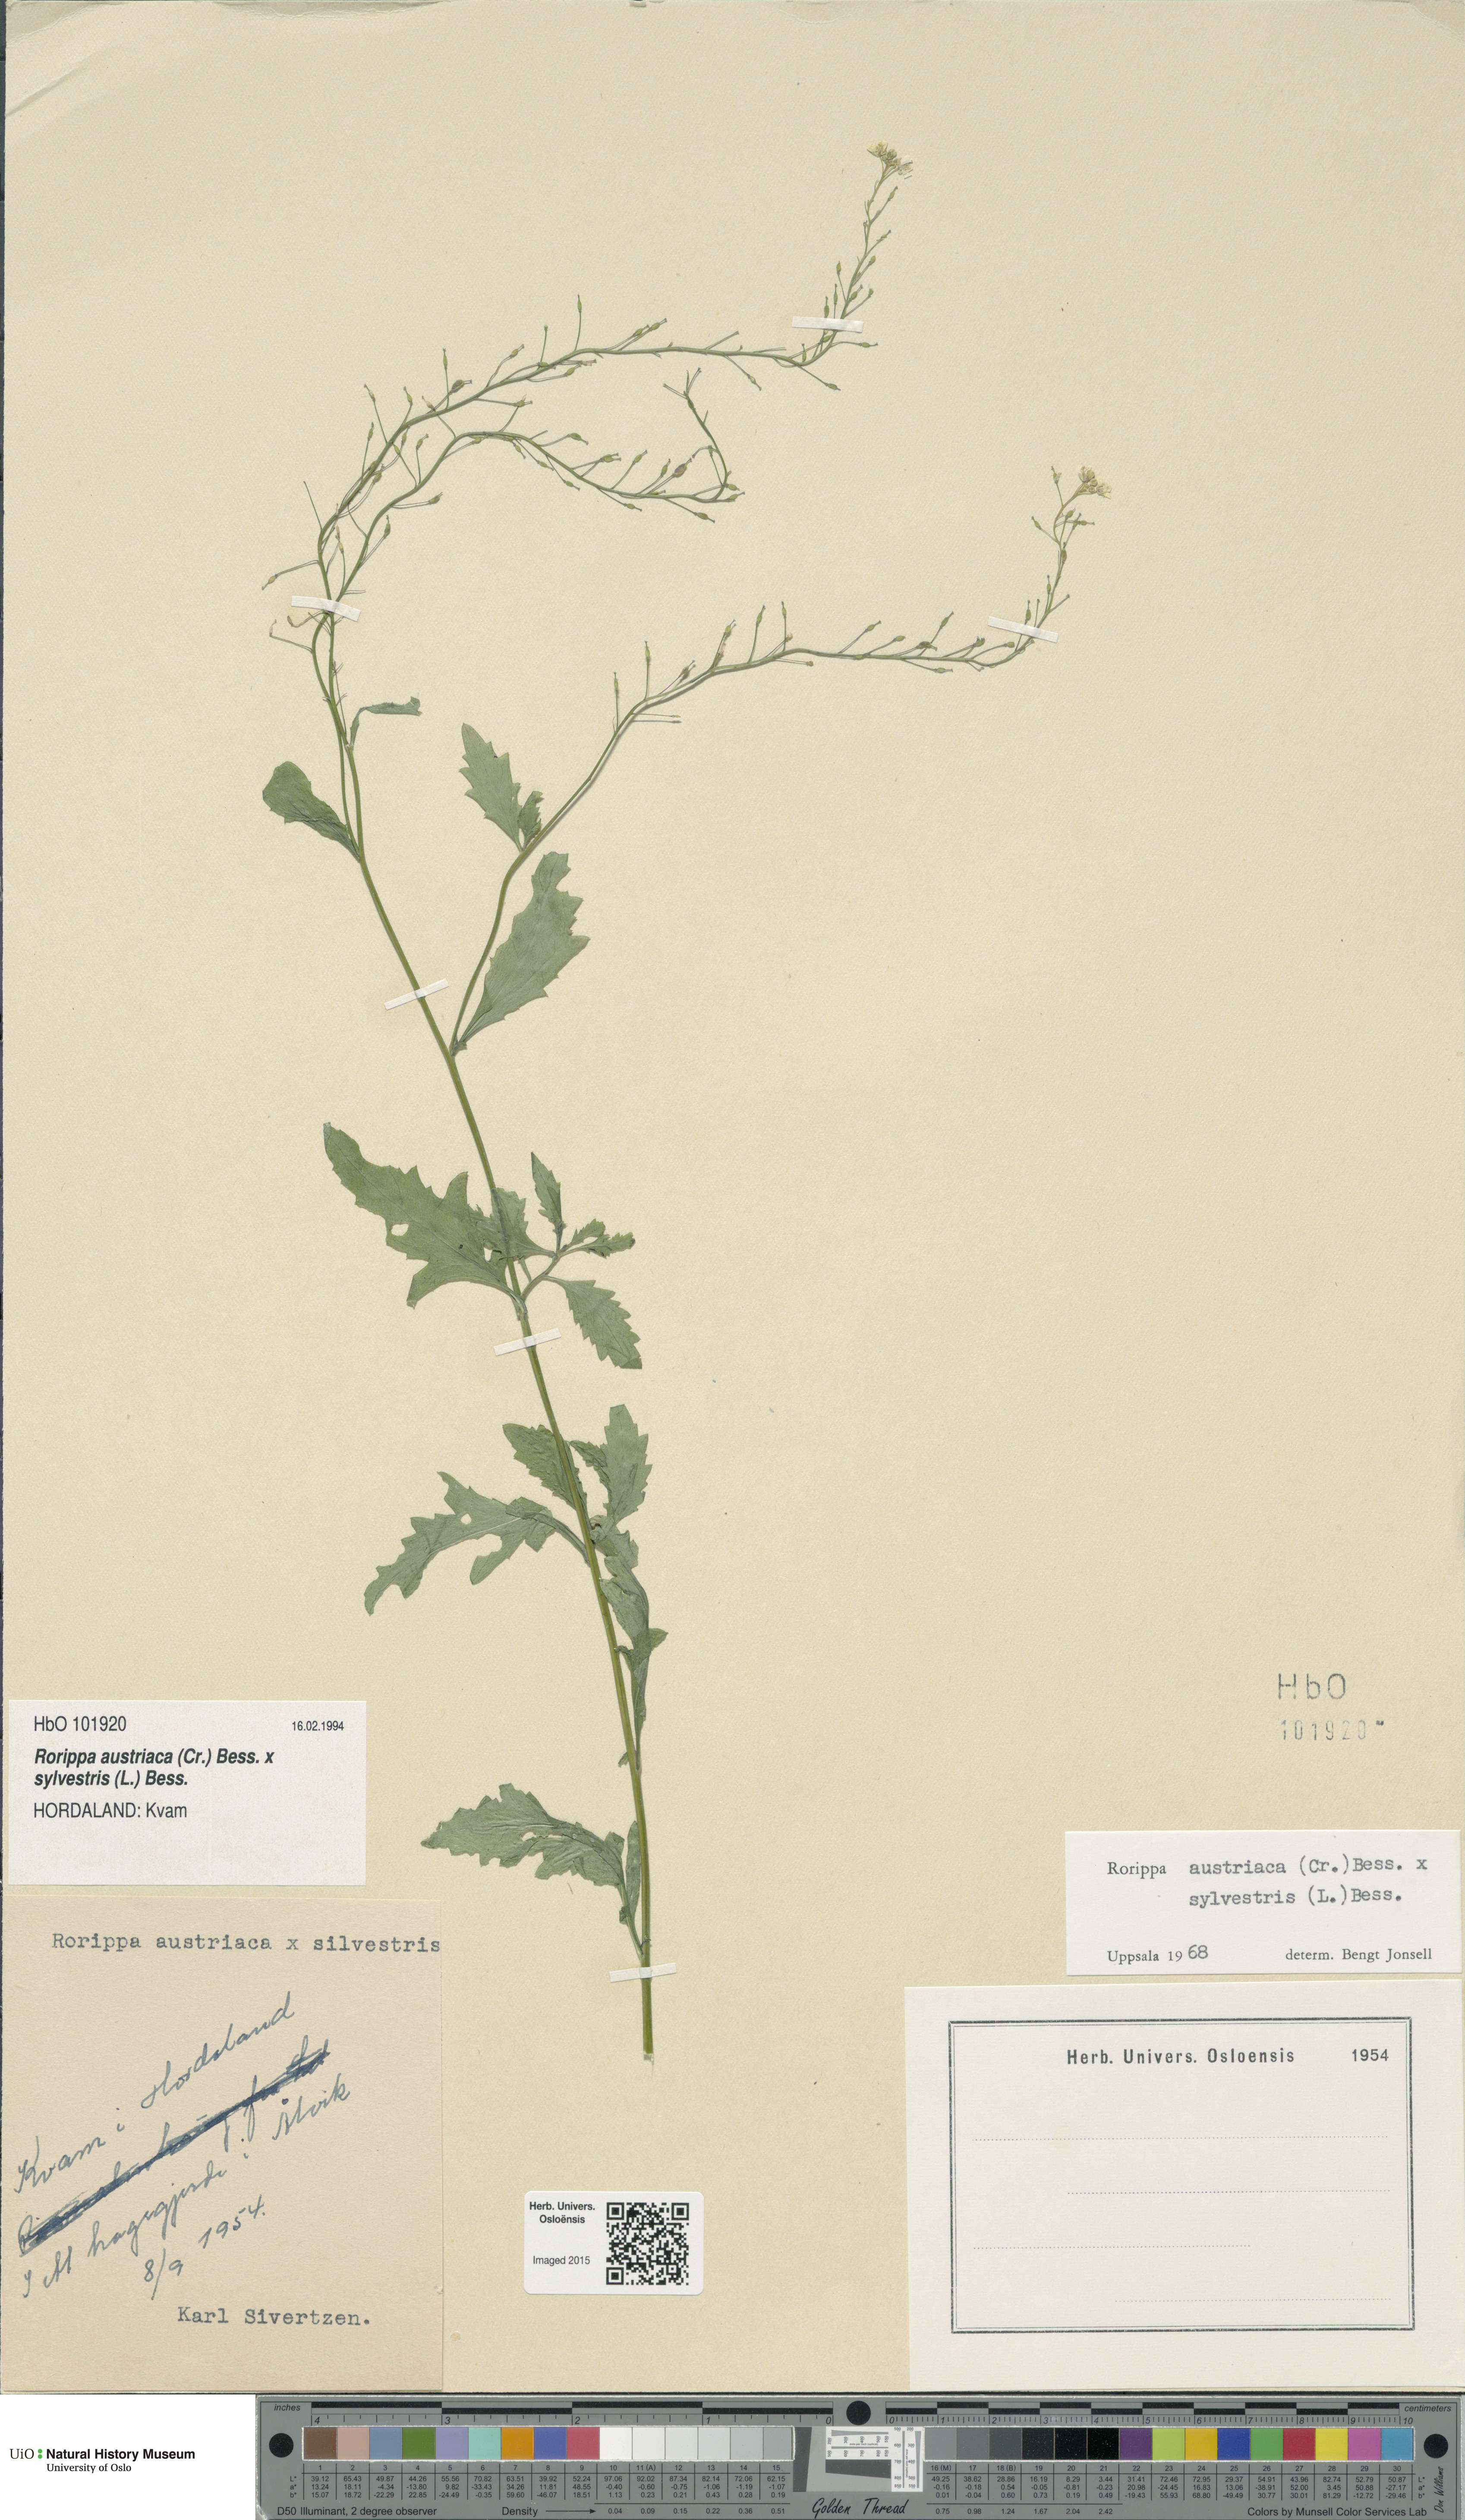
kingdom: Plantae
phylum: Tracheophyta
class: Magnoliopsida
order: Brassicales
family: Brassicaceae
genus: Rorippa
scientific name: Rorippa
